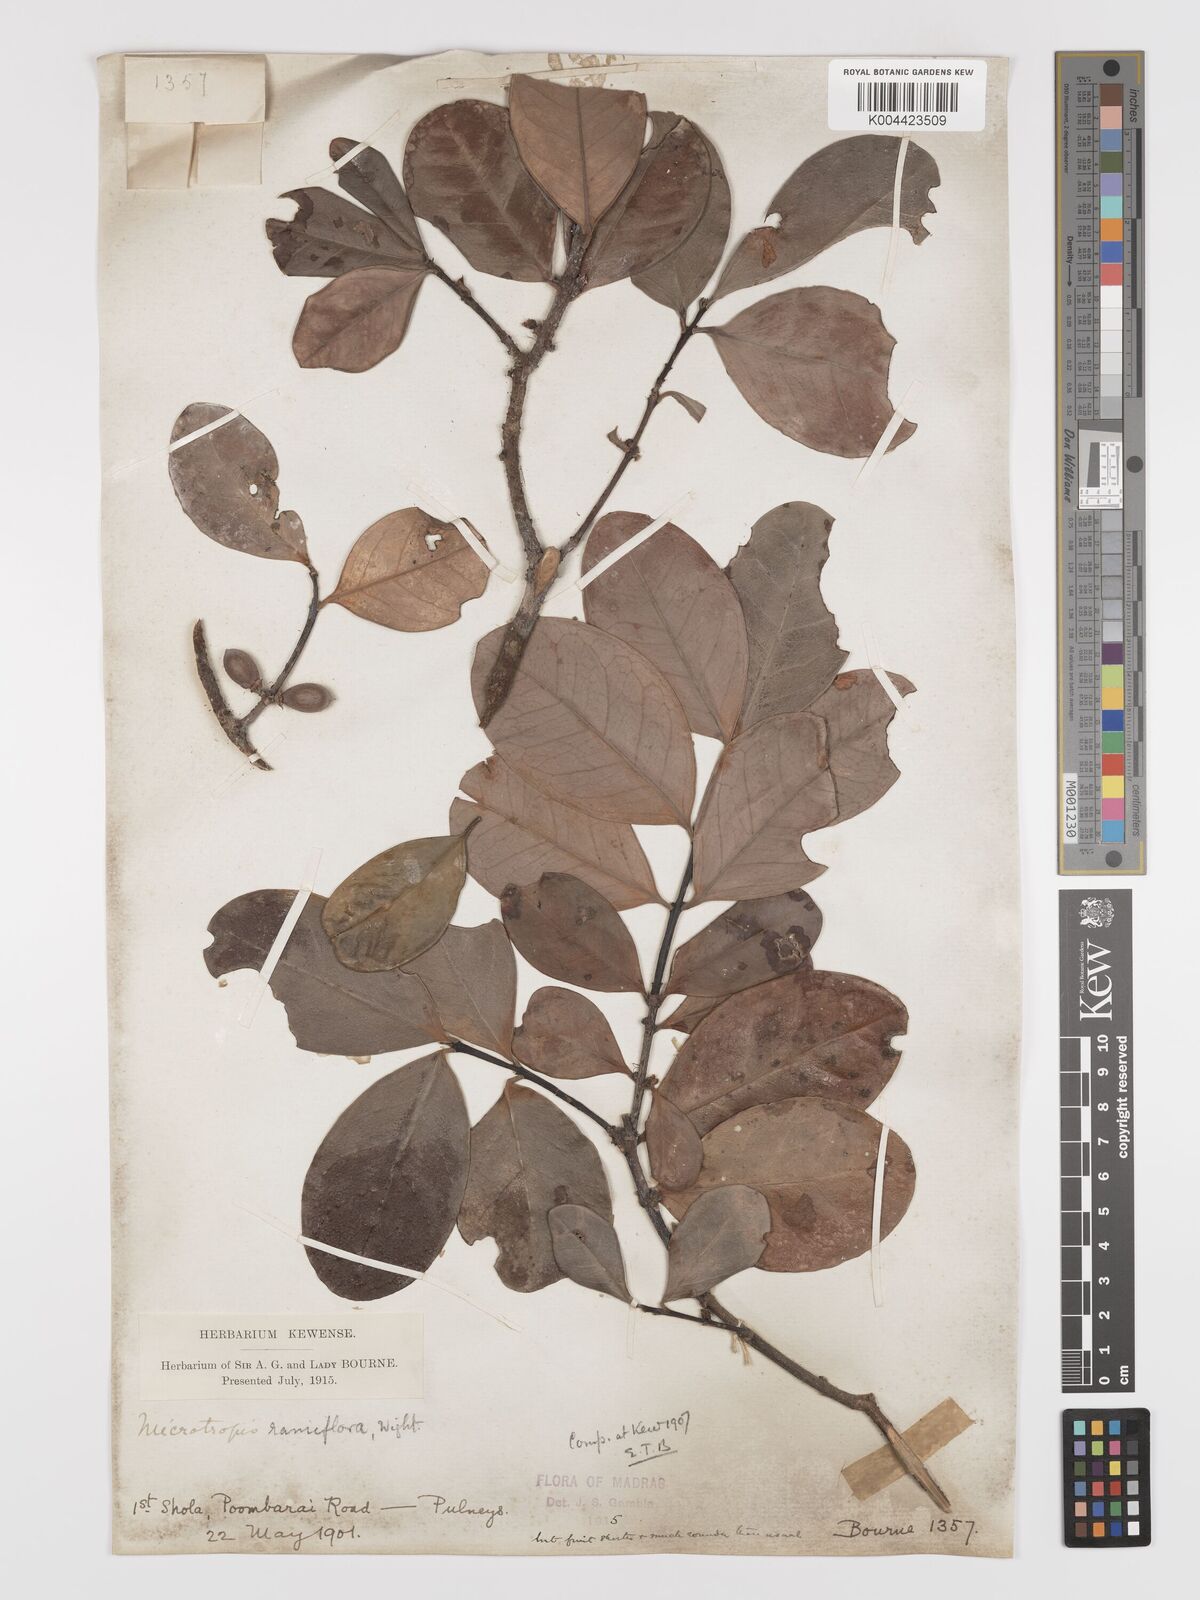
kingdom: Plantae
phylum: Tracheophyta
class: Magnoliopsida
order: Celastrales
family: Celastraceae
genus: Microtropis
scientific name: Microtropis ramiflora
